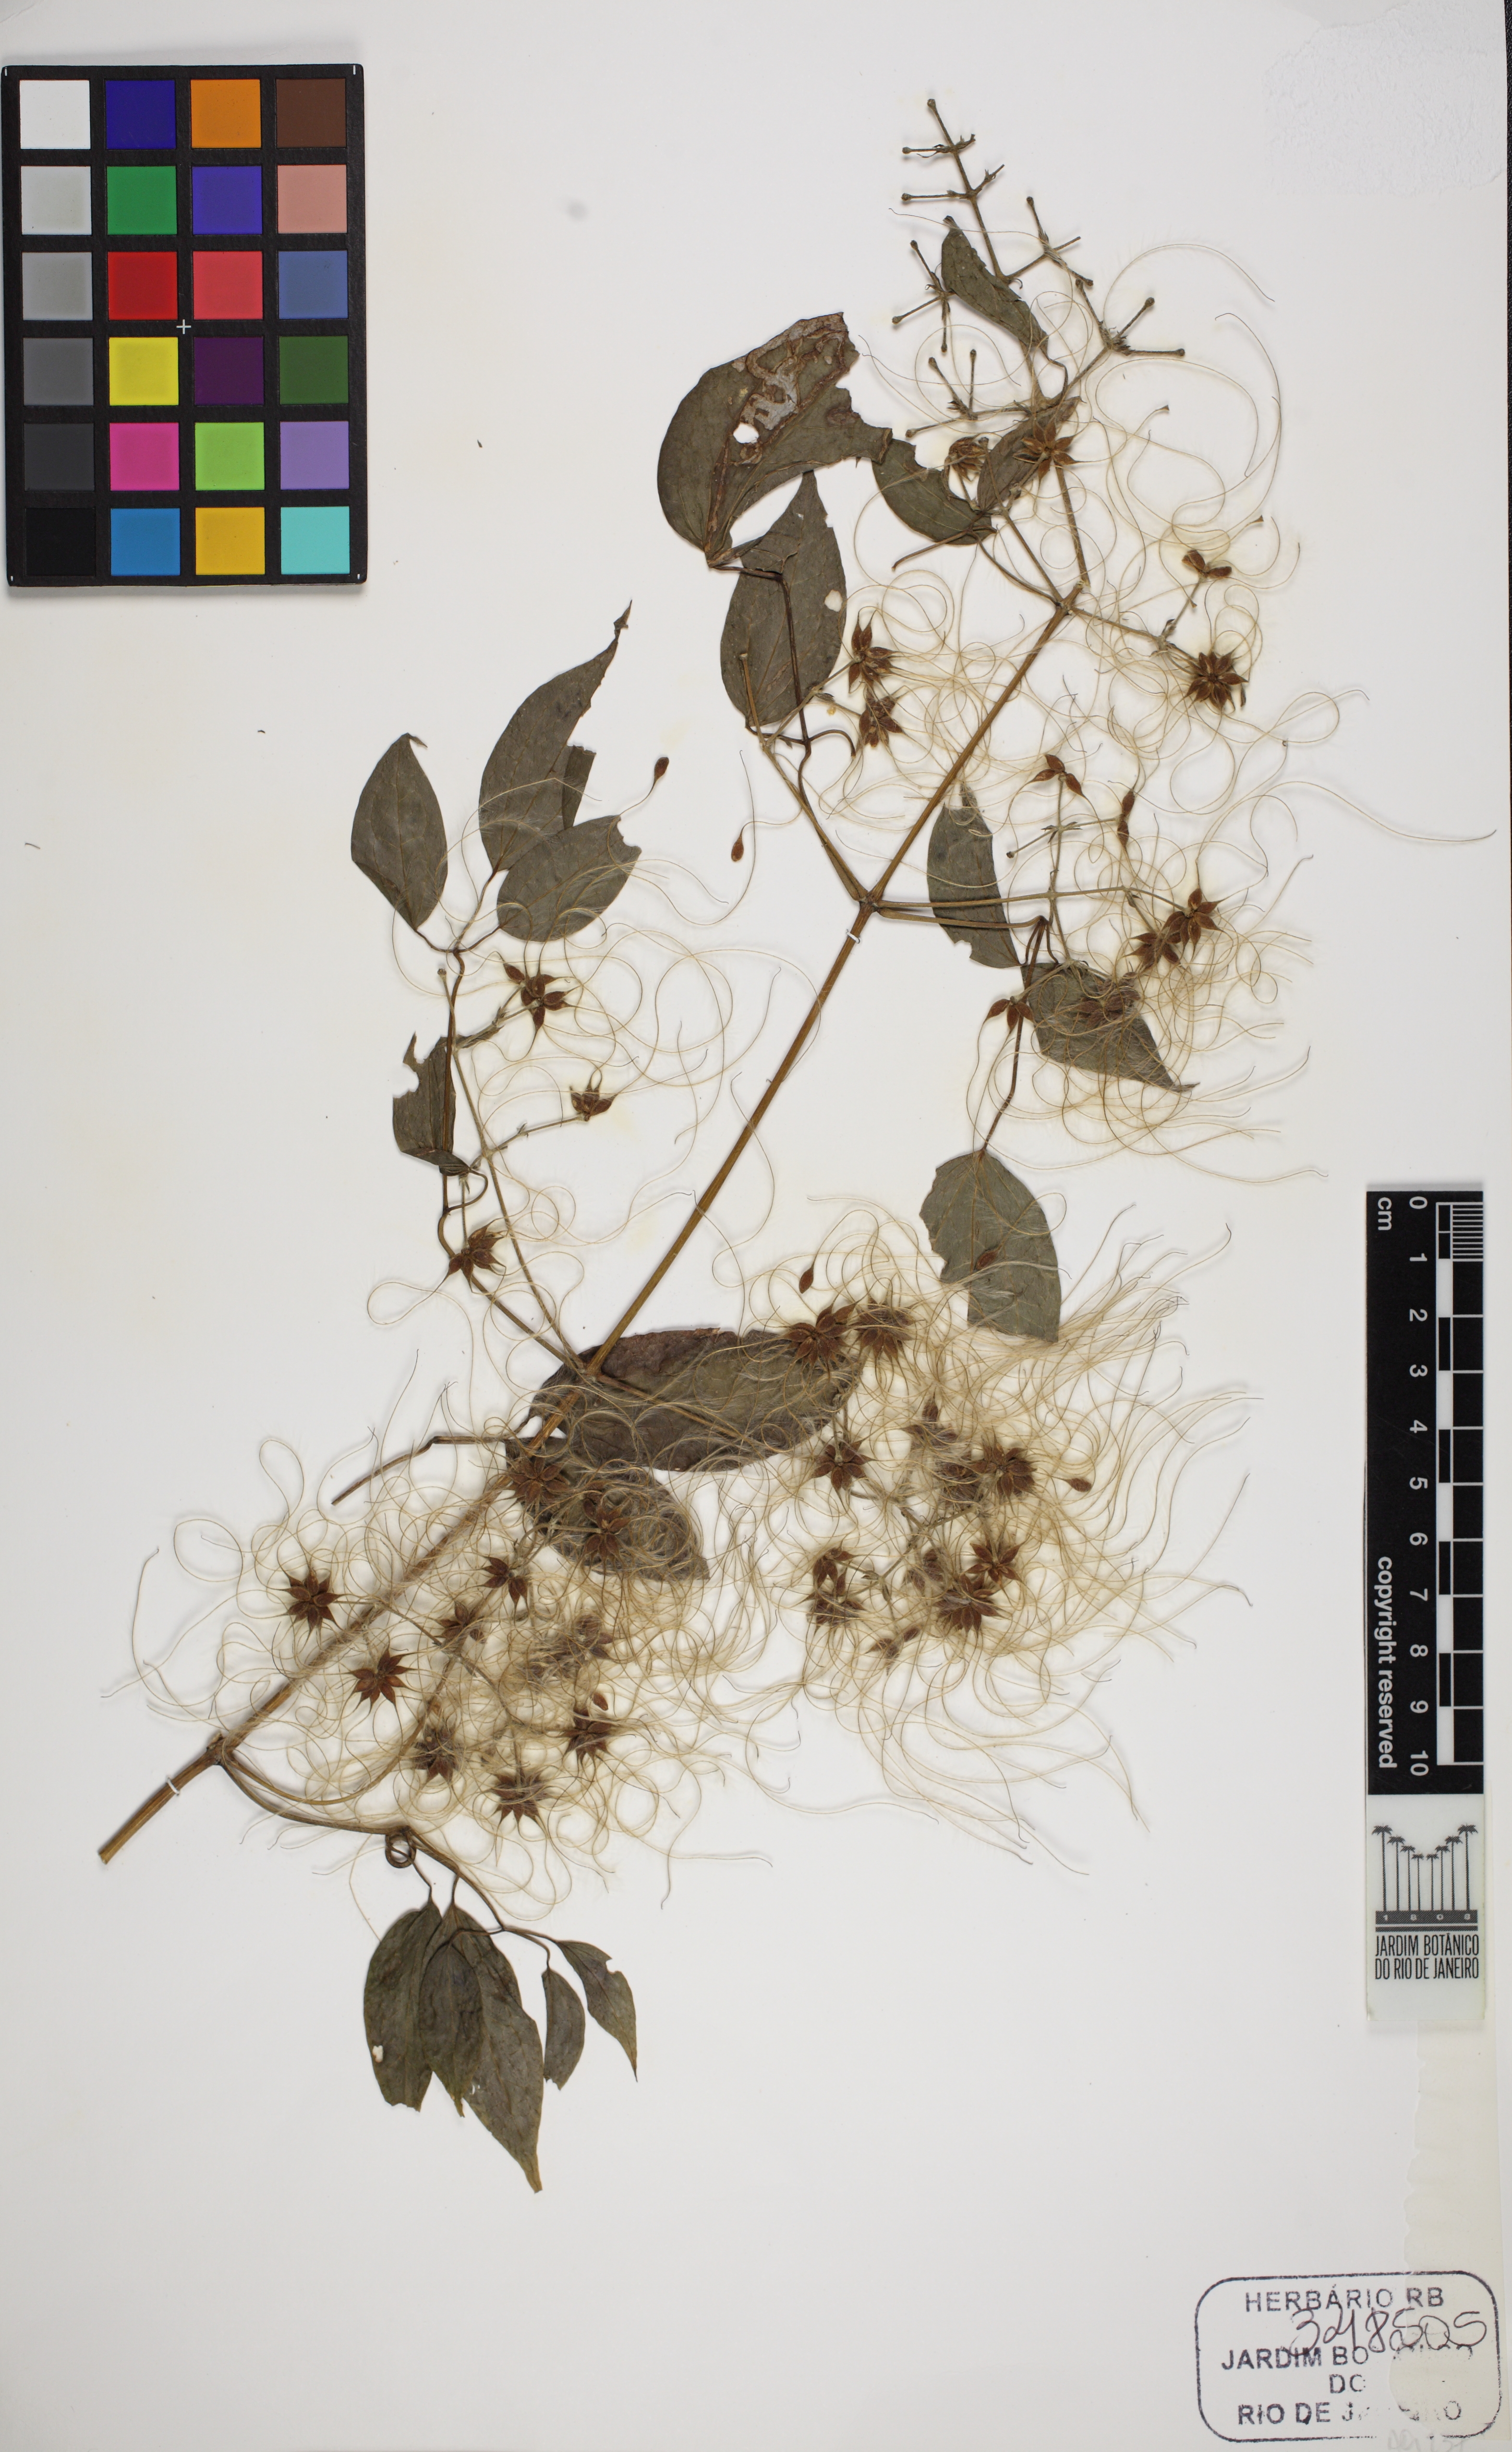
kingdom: Plantae
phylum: Tracheophyta
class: Magnoliopsida
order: Ranunculales
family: Ranunculaceae
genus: Clematis
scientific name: Clematis dioica
